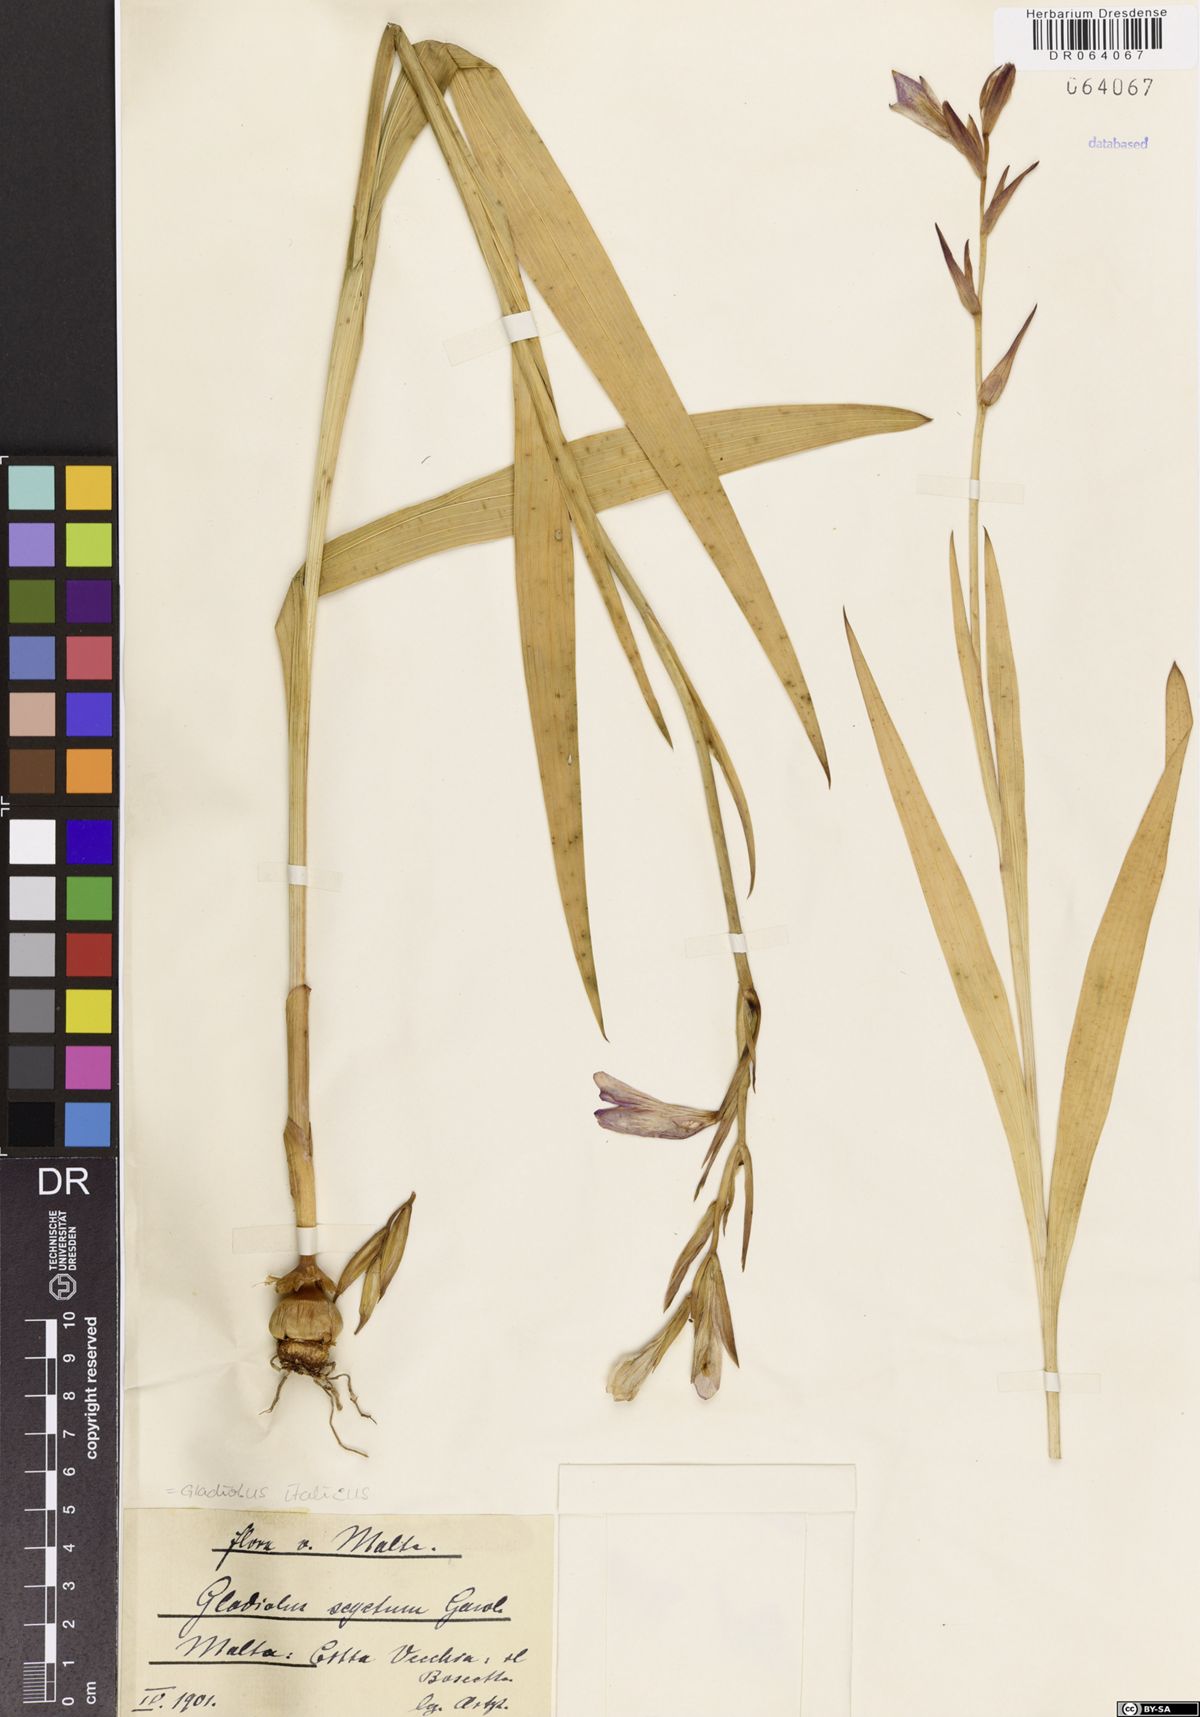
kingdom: Plantae
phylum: Tracheophyta
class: Liliopsida
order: Asparagales
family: Iridaceae
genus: Gladiolus
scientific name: Gladiolus italicus
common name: Field gladiolus
